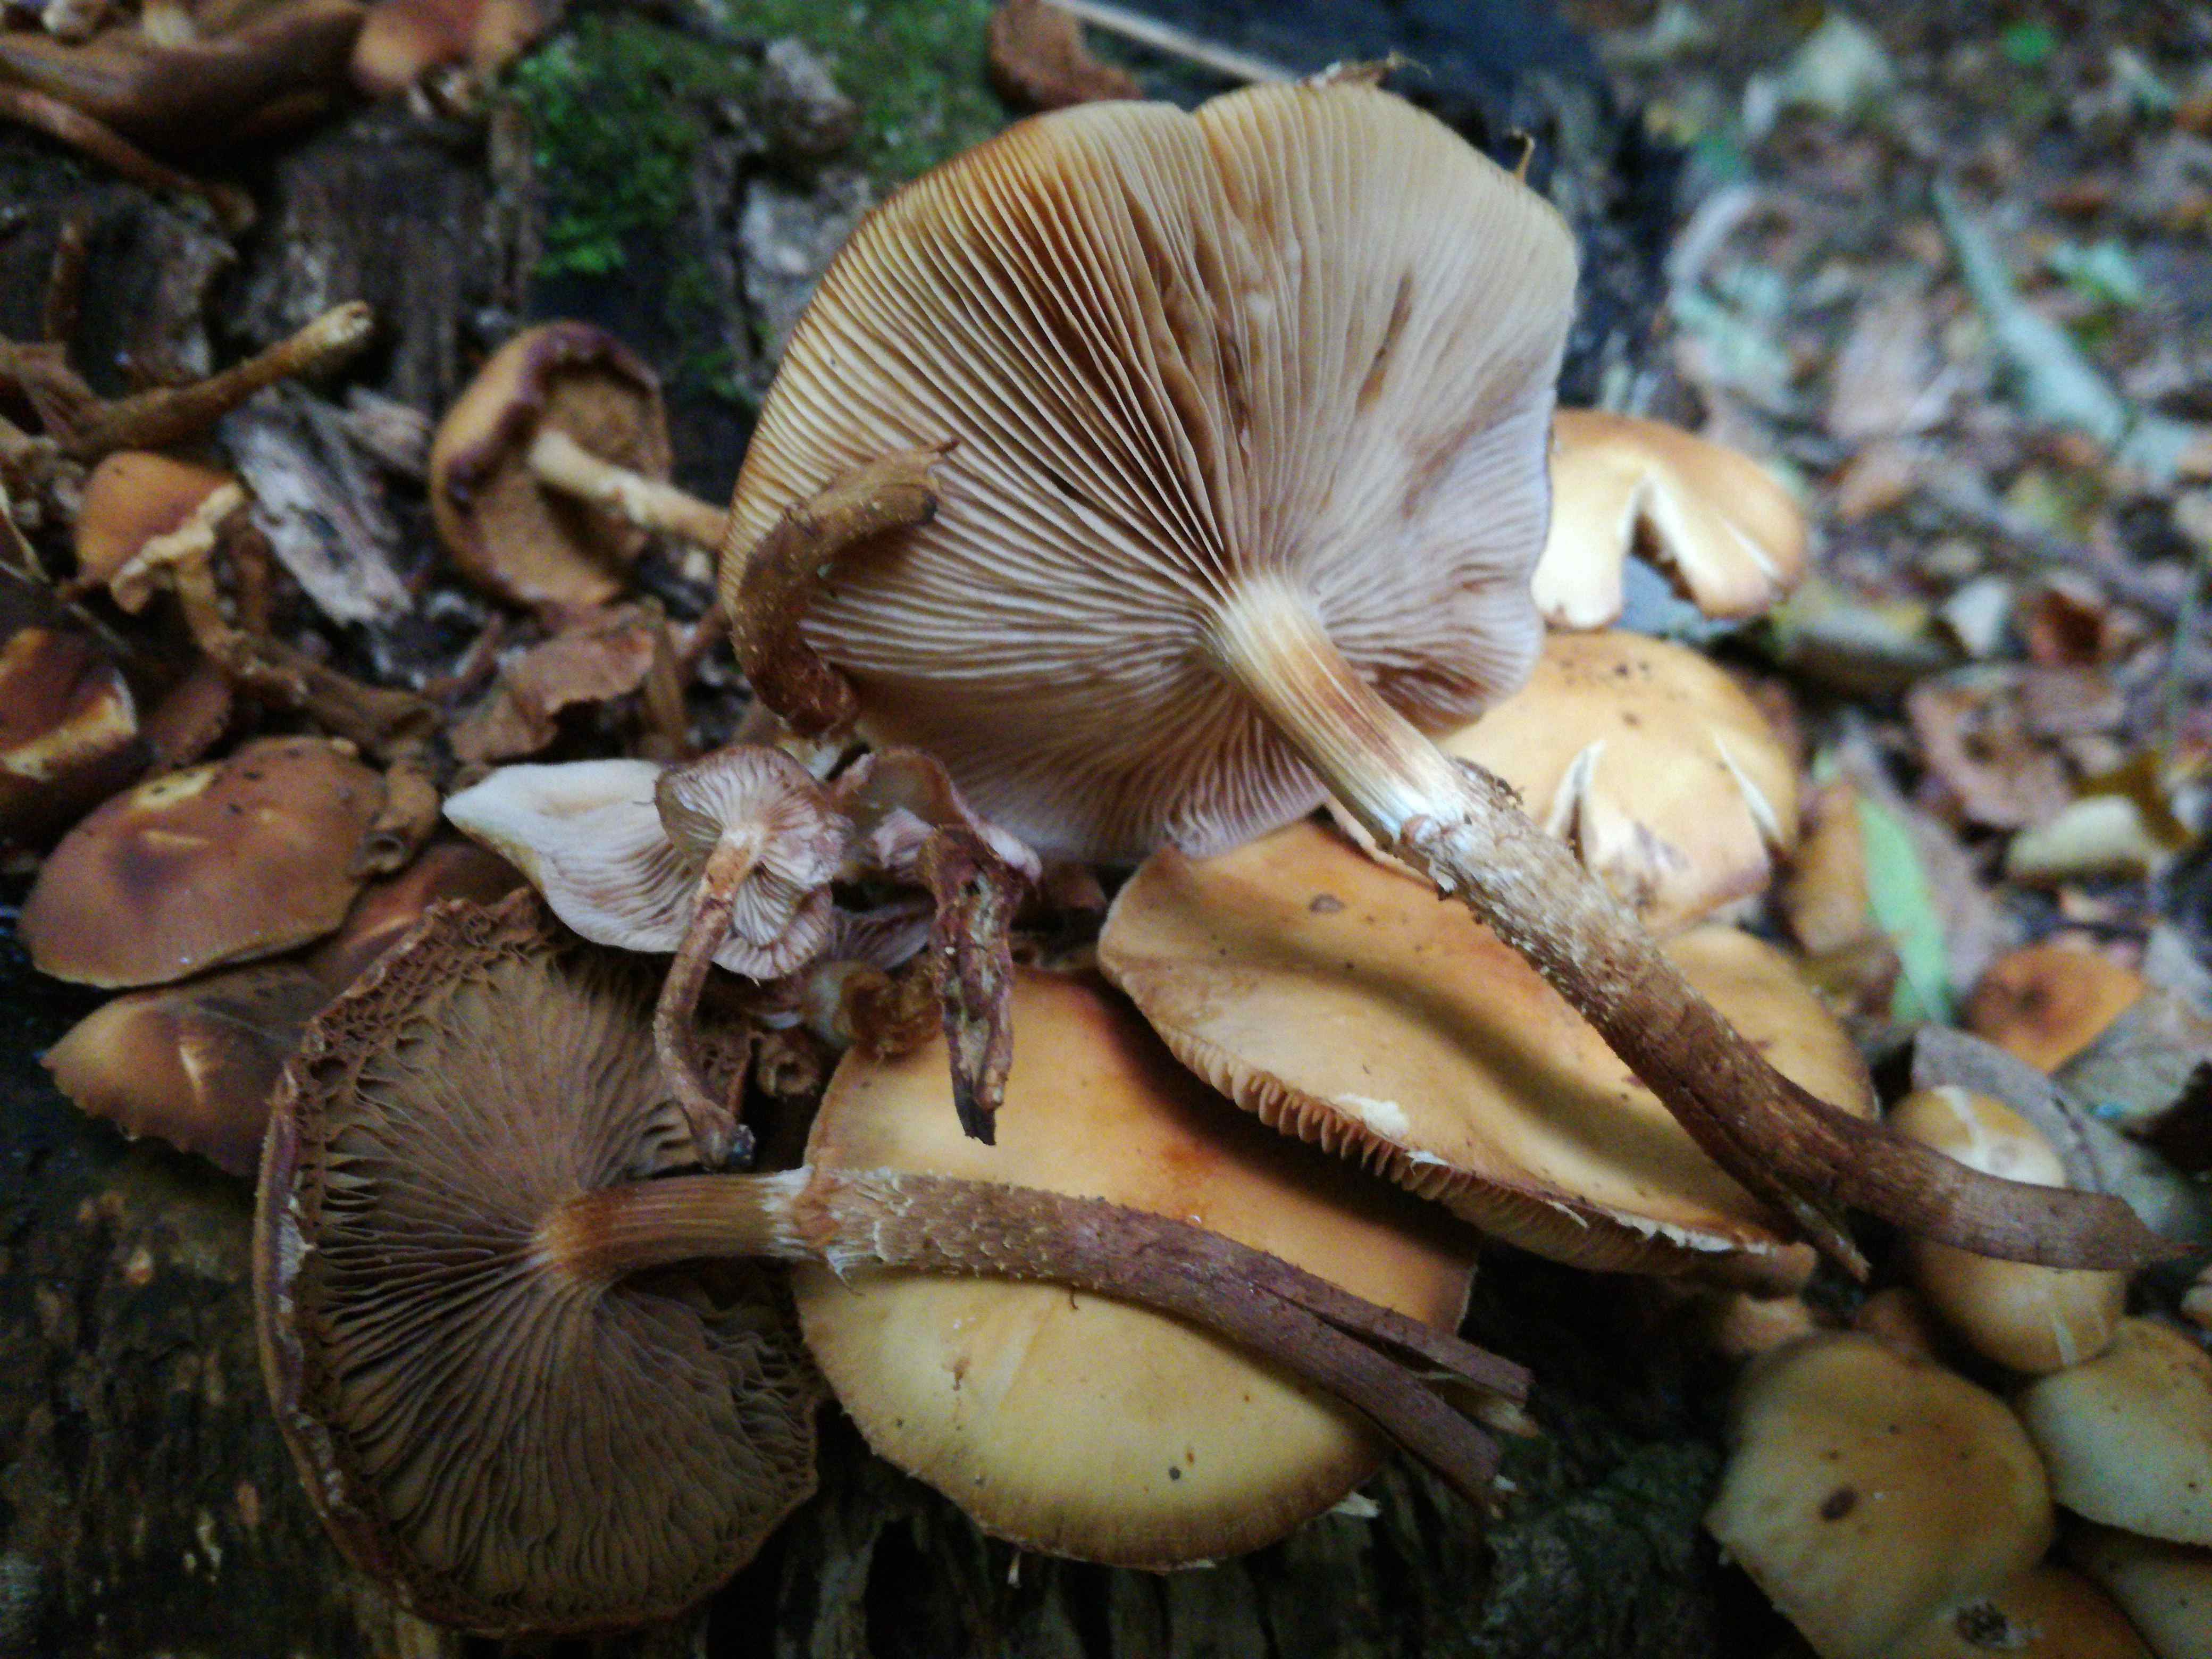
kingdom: Fungi
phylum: Basidiomycota
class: Agaricomycetes
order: Agaricales
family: Strophariaceae
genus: Kuehneromyces
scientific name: Kuehneromyces mutabilis
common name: foranderlig skælhat
